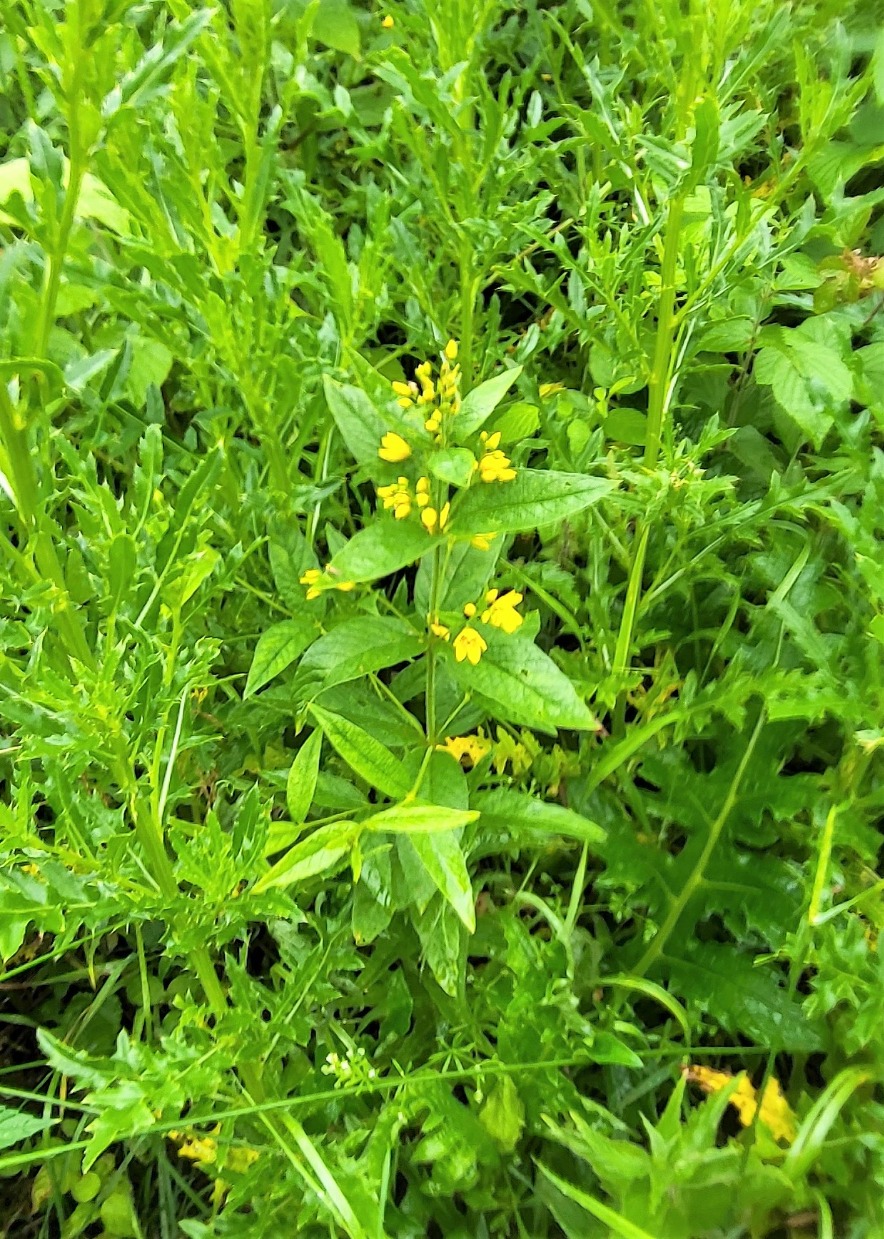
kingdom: Plantae
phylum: Tracheophyta
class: Magnoliopsida
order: Ericales
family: Primulaceae
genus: Lysimachia
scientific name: Lysimachia vulgaris
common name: Almindelig fredløs
